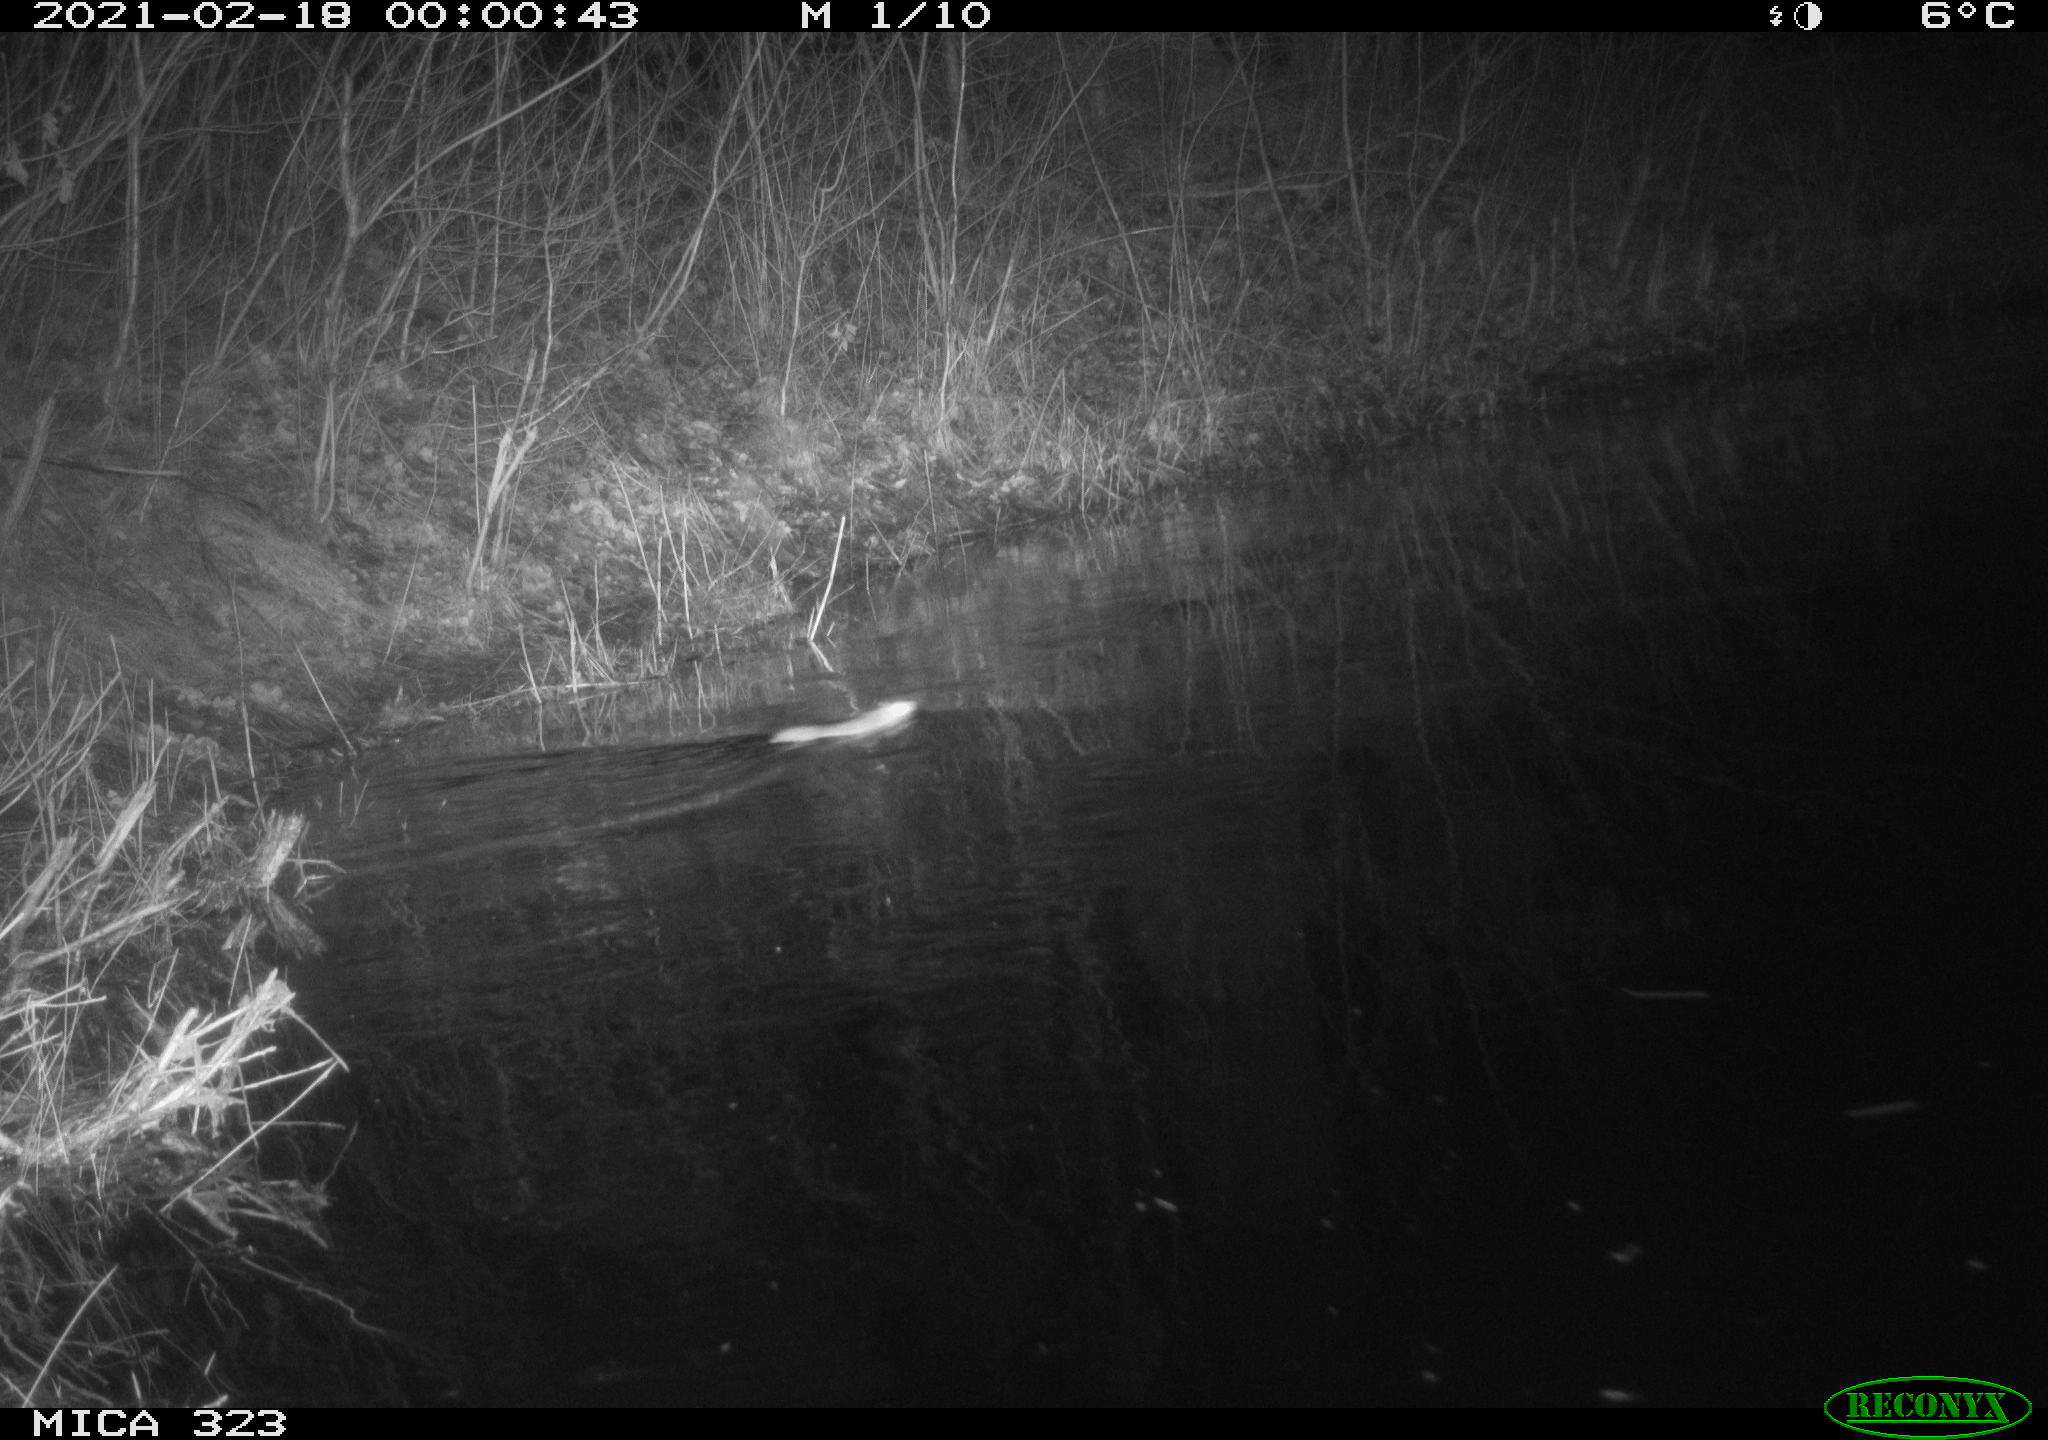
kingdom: Animalia
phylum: Chordata
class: Mammalia
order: Rodentia
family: Muridae
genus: Rattus
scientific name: Rattus norvegicus
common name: Brown rat
